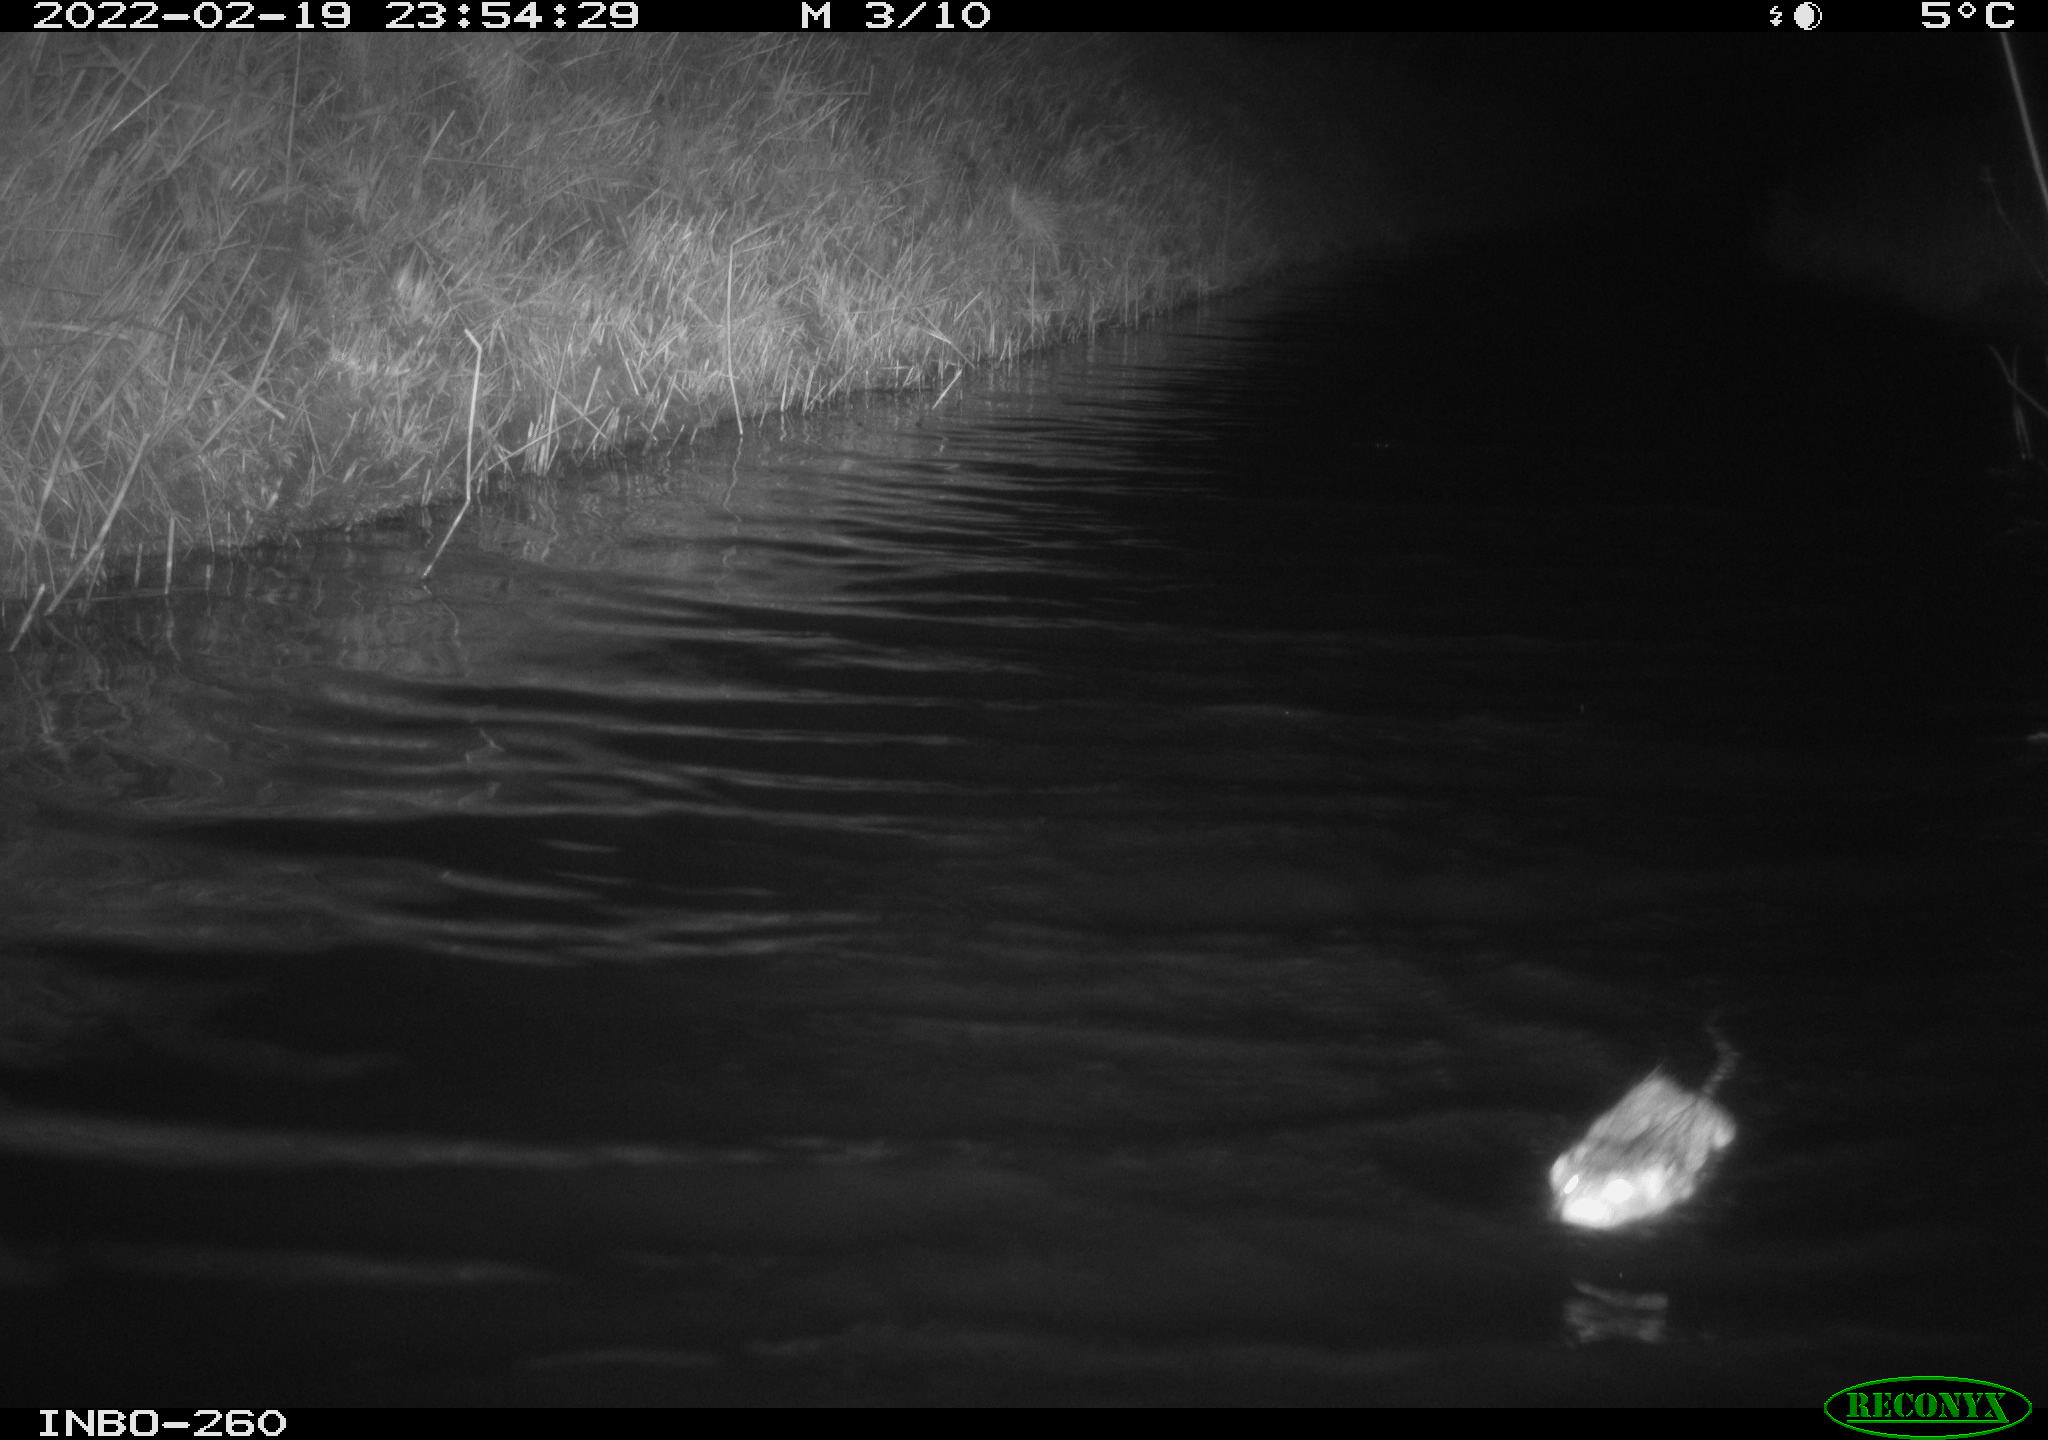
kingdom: Animalia
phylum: Chordata
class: Mammalia
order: Rodentia
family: Cricetidae
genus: Ondatra
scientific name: Ondatra zibethicus
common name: Muskrat
